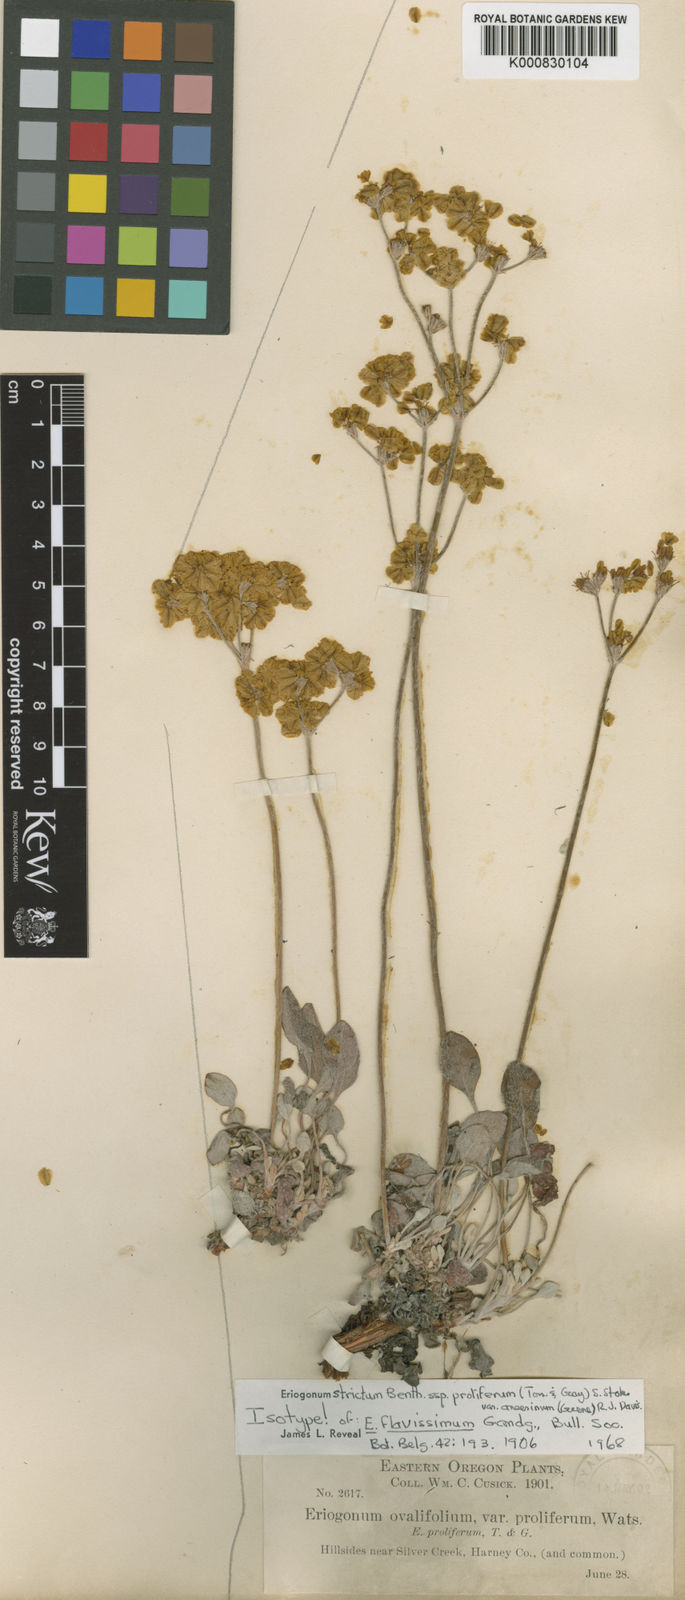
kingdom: Plantae
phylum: Tracheophyta
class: Magnoliopsida
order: Caryophyllales
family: Polygonaceae
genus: Eriogonum
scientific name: Eriogonum strictum
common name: Blue mountain buckwheat
